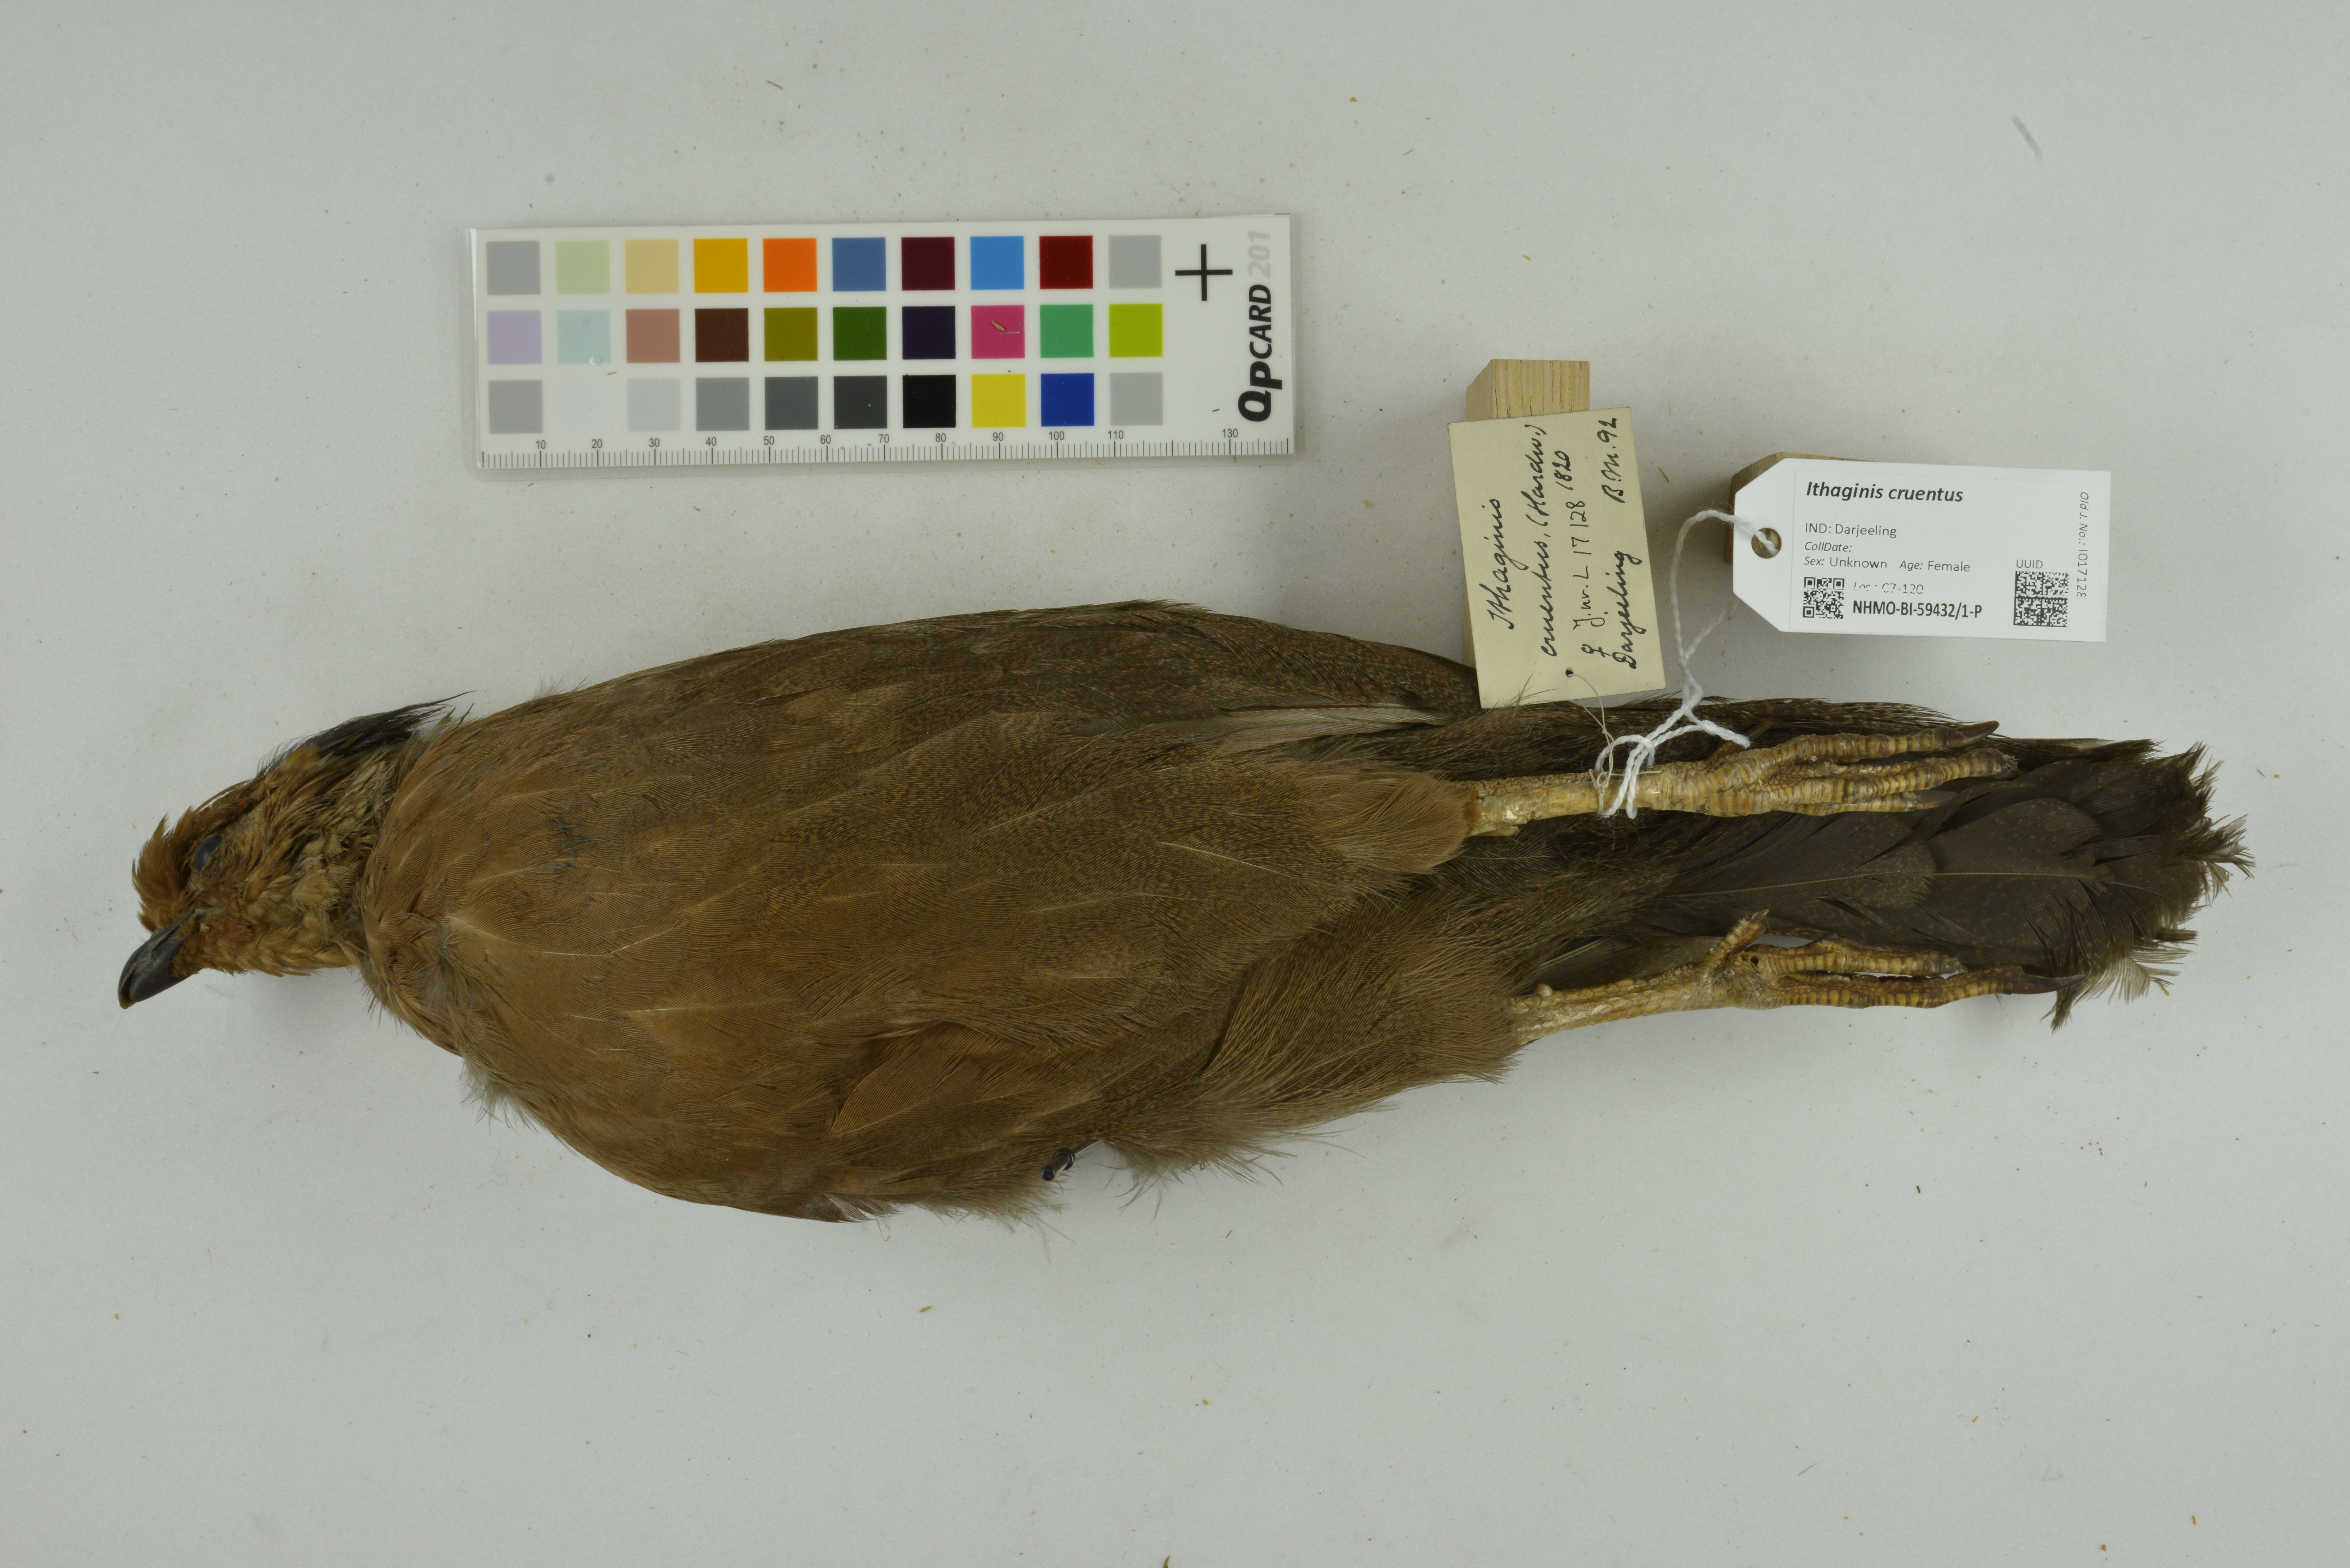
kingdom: Animalia
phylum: Chordata
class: Aves
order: Galliformes
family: Phasianidae
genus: Ithaginis
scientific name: Ithaginis cruentus
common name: Blood pheasant
